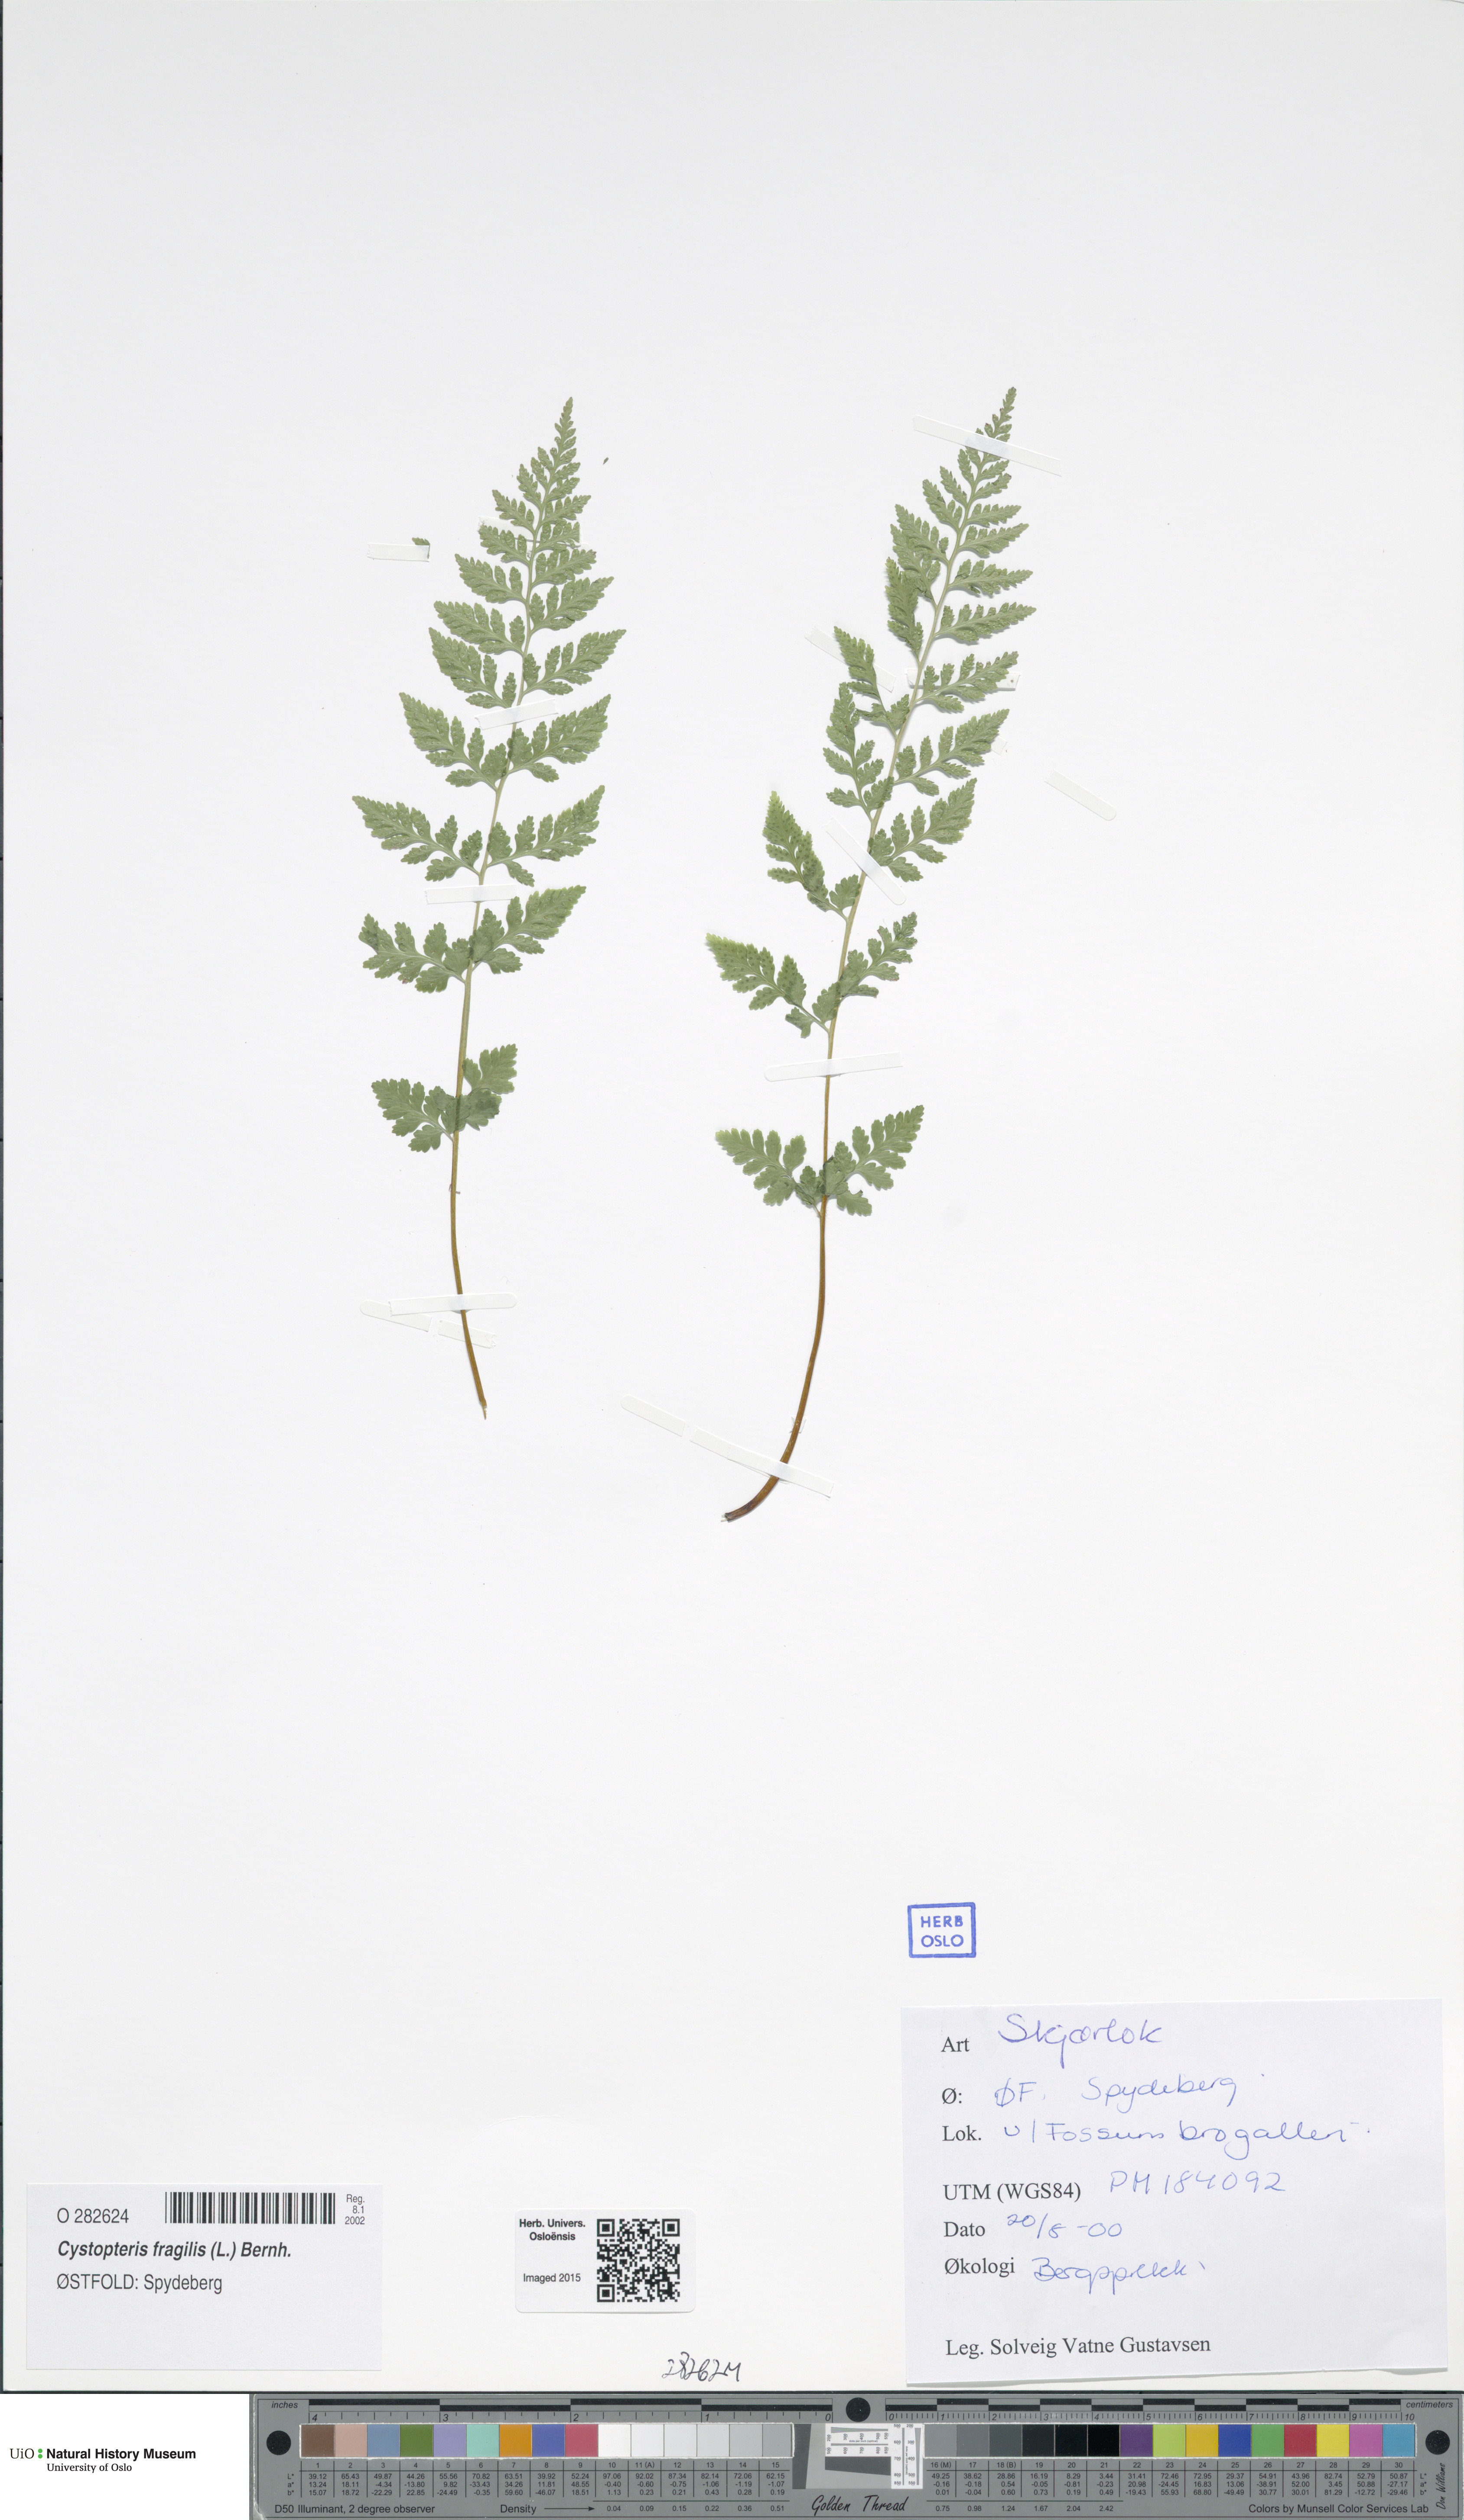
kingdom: Plantae
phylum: Tracheophyta
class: Polypodiopsida
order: Polypodiales
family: Cystopteridaceae
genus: Cystopteris
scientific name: Cystopteris fragilis
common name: Brittle bladder fern
